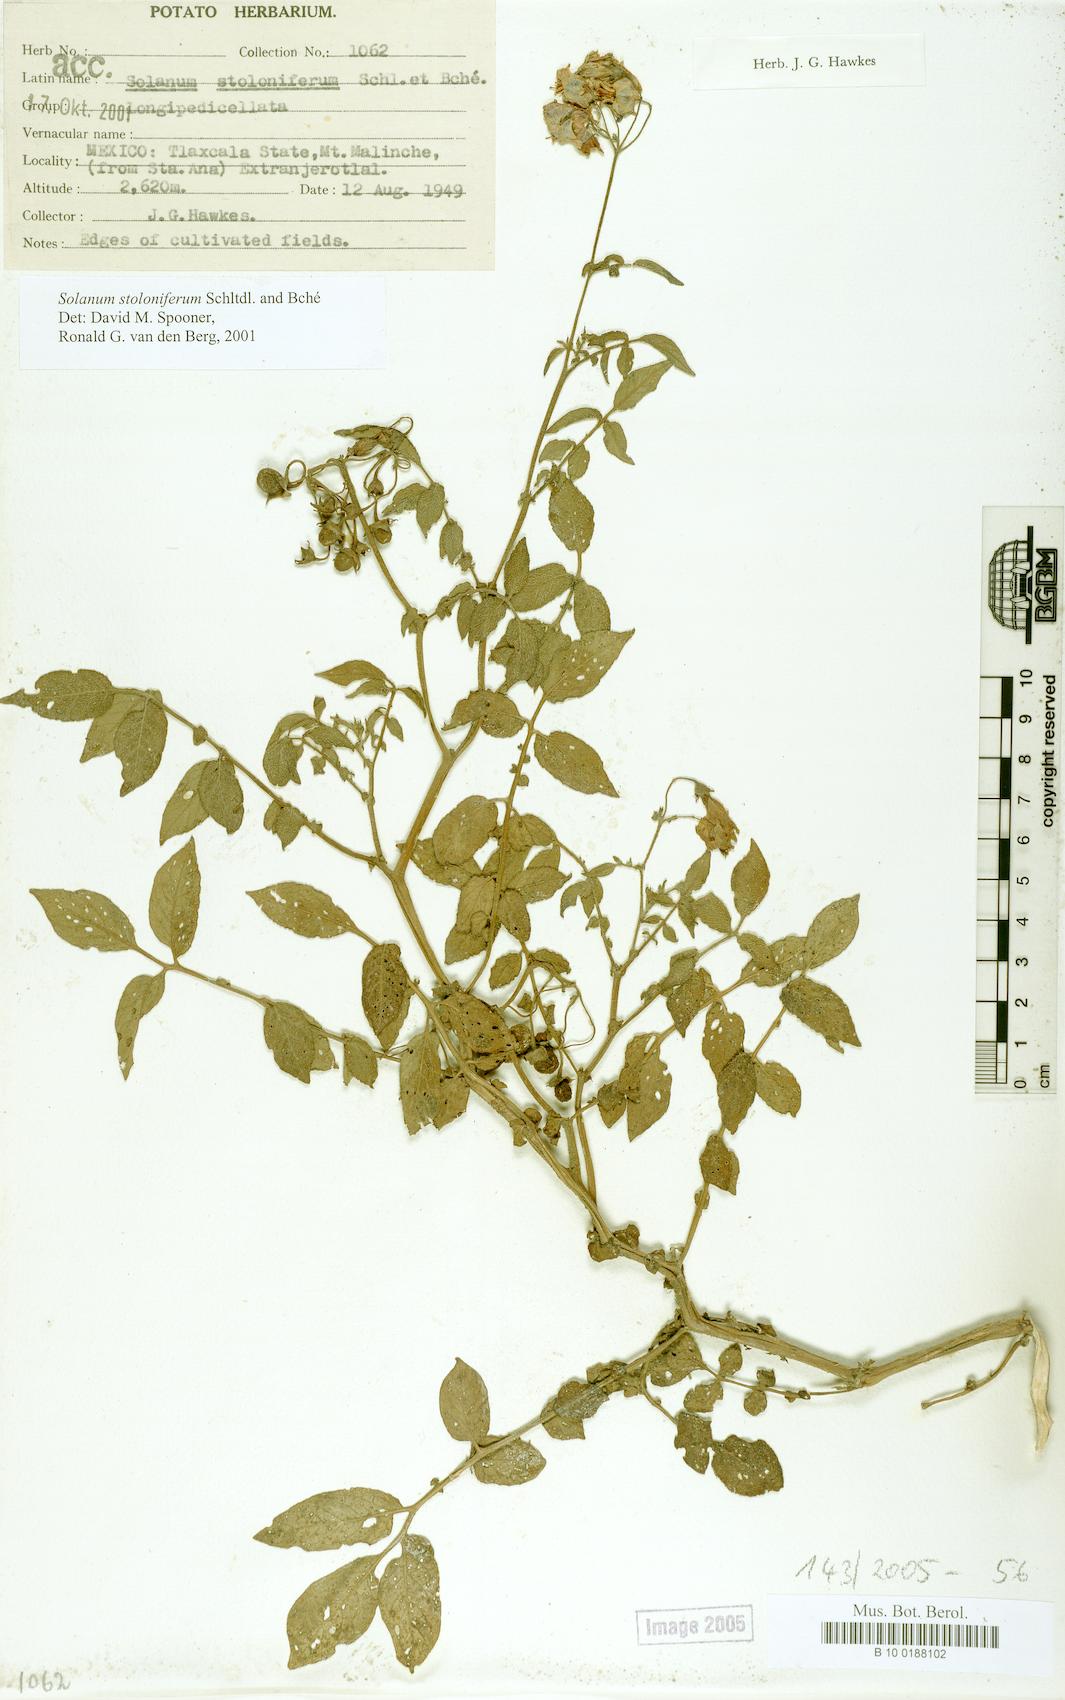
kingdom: Plantae
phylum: Tracheophyta
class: Magnoliopsida
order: Solanales
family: Solanaceae
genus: Solanum
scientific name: Solanum stoloniferum
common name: Fendler's nighshade
